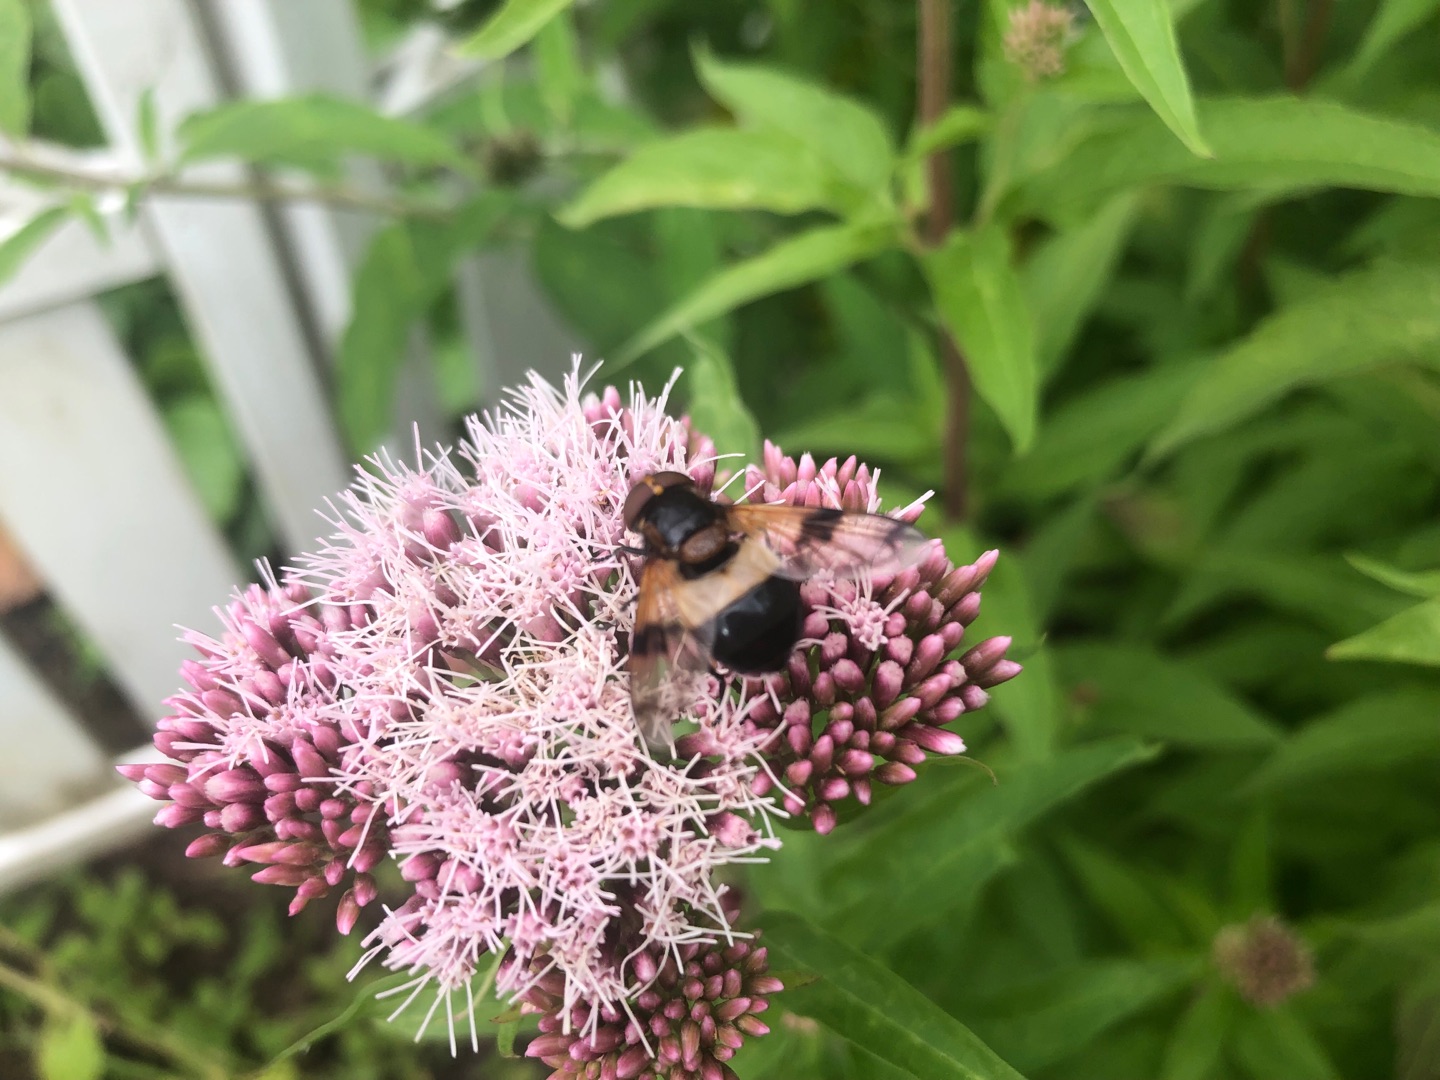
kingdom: Animalia
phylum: Arthropoda
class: Insecta
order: Diptera
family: Syrphidae
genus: Volucella
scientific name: Volucella pellucens
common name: Hvidbåndet humlesvirreflue
